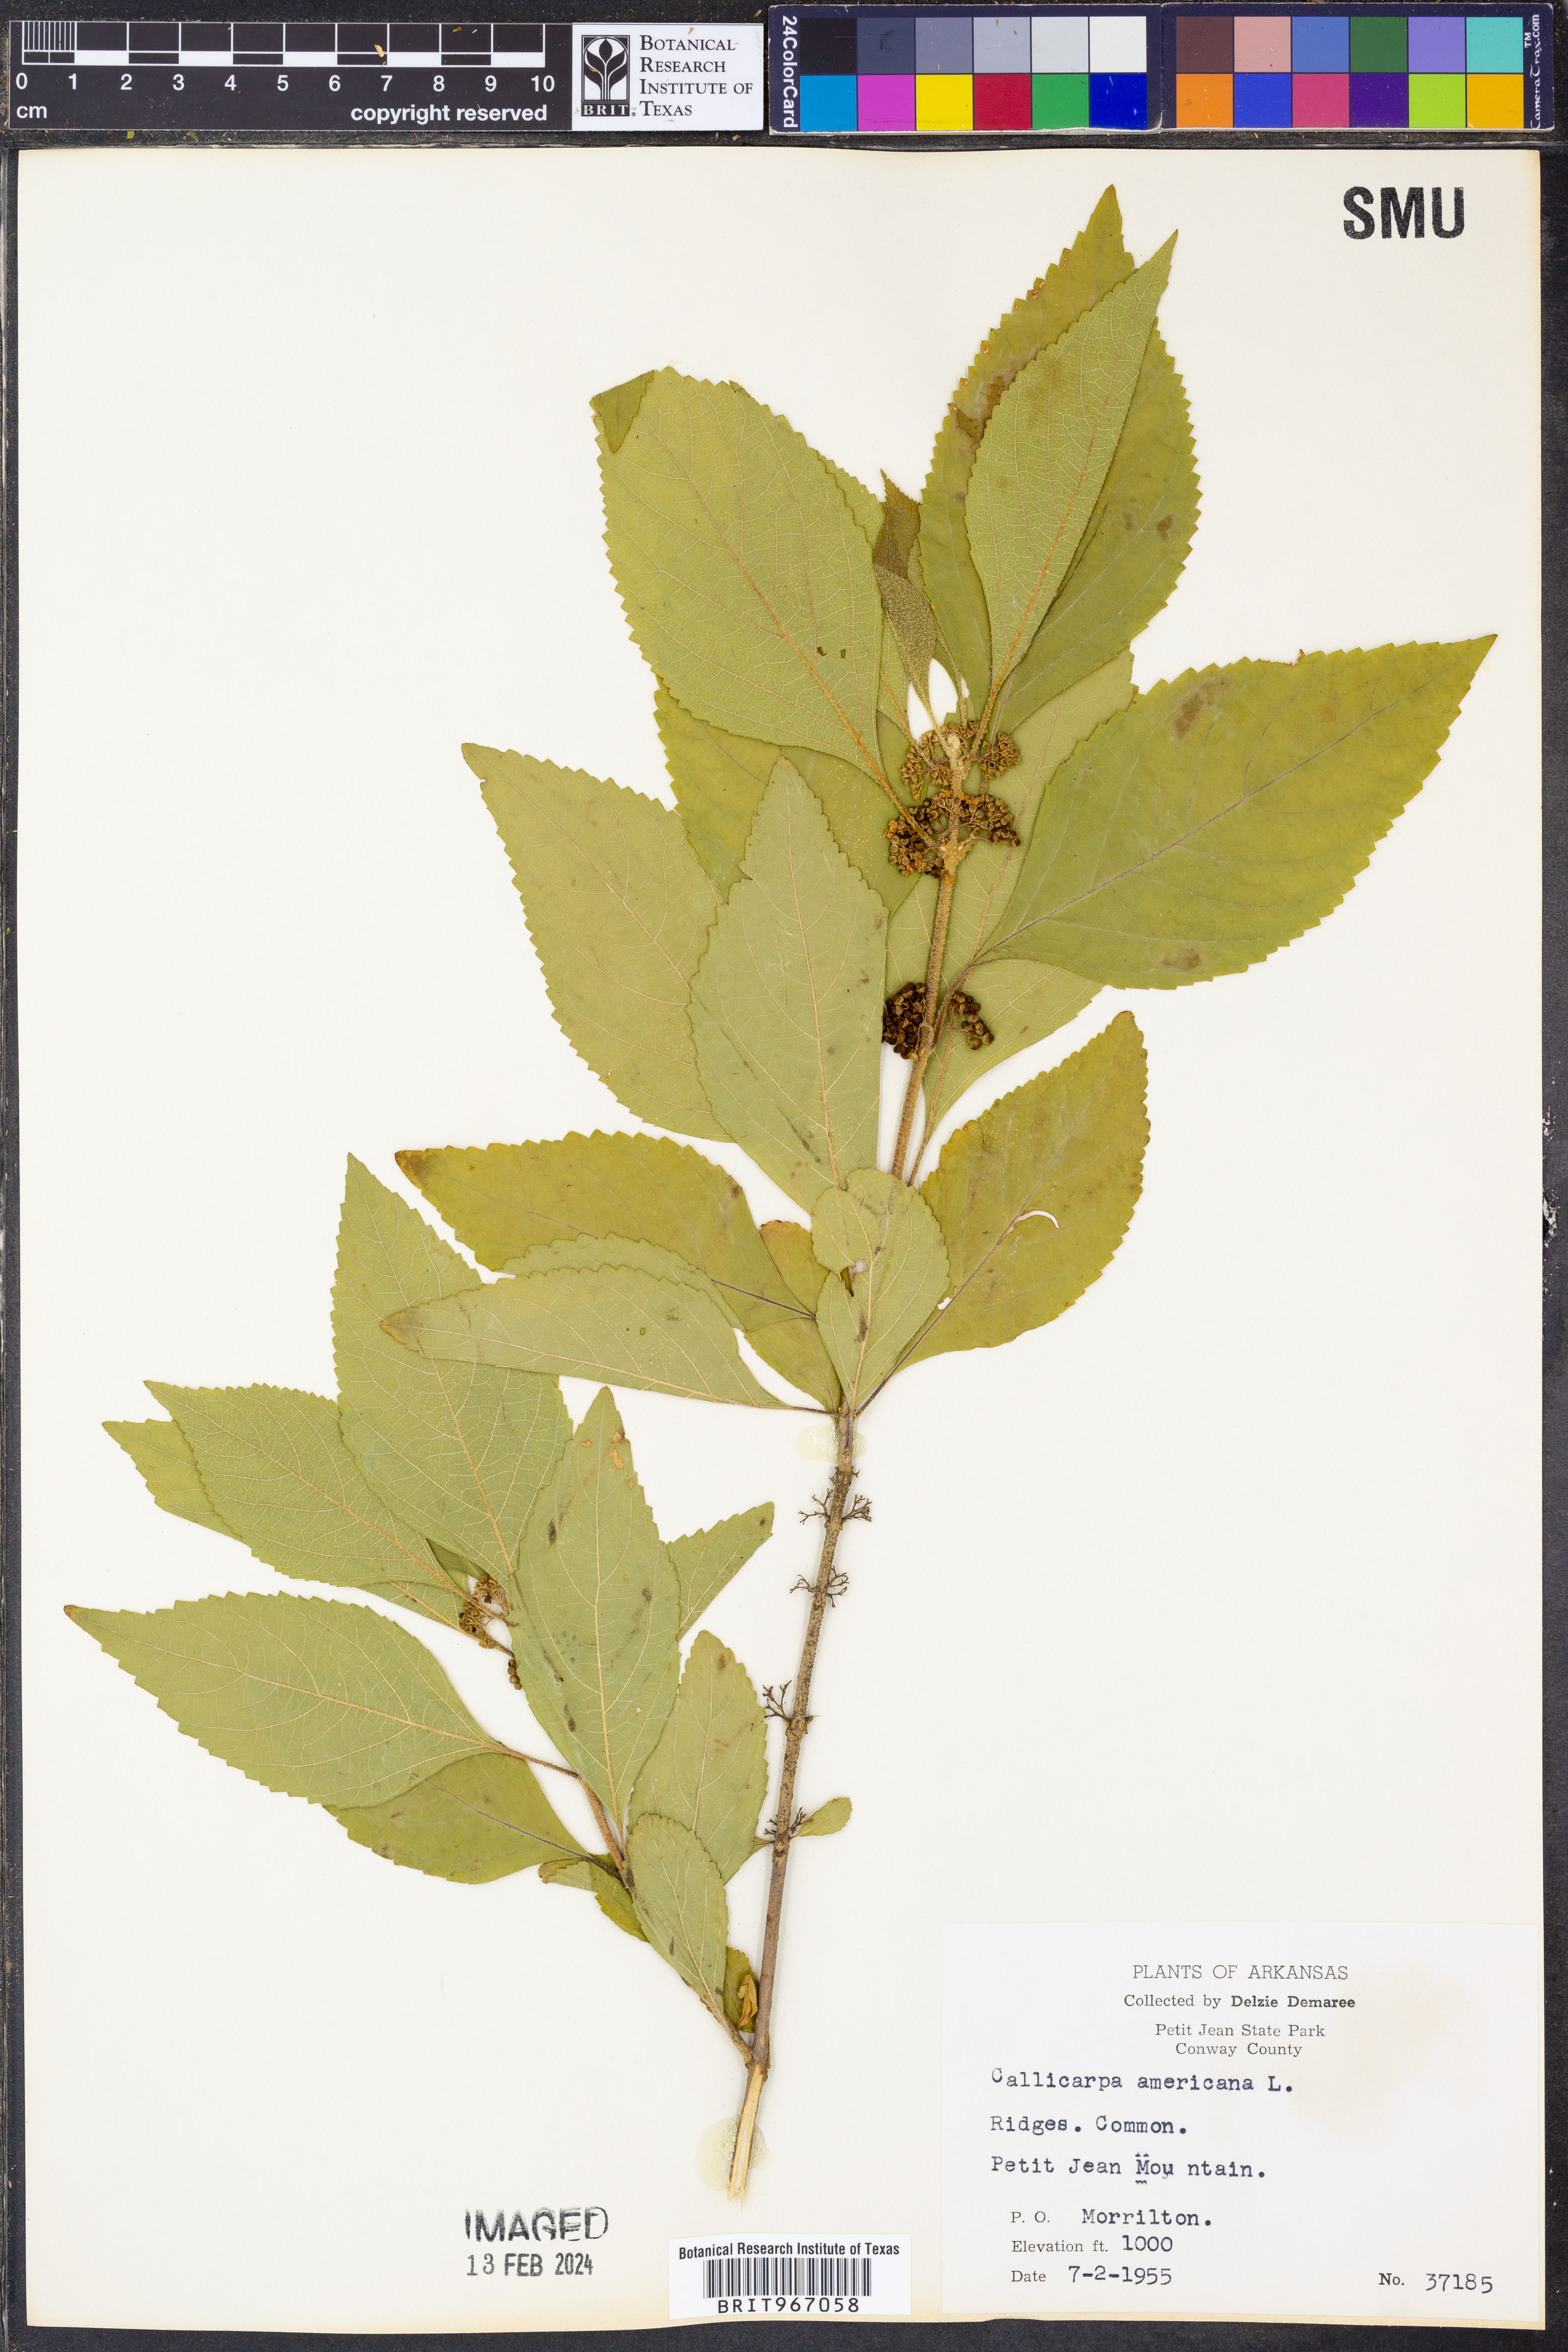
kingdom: Plantae
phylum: Tracheophyta
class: Magnoliopsida
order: Lamiales
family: Lamiaceae
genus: Callicarpa
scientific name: Callicarpa americana
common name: American beautyberry
